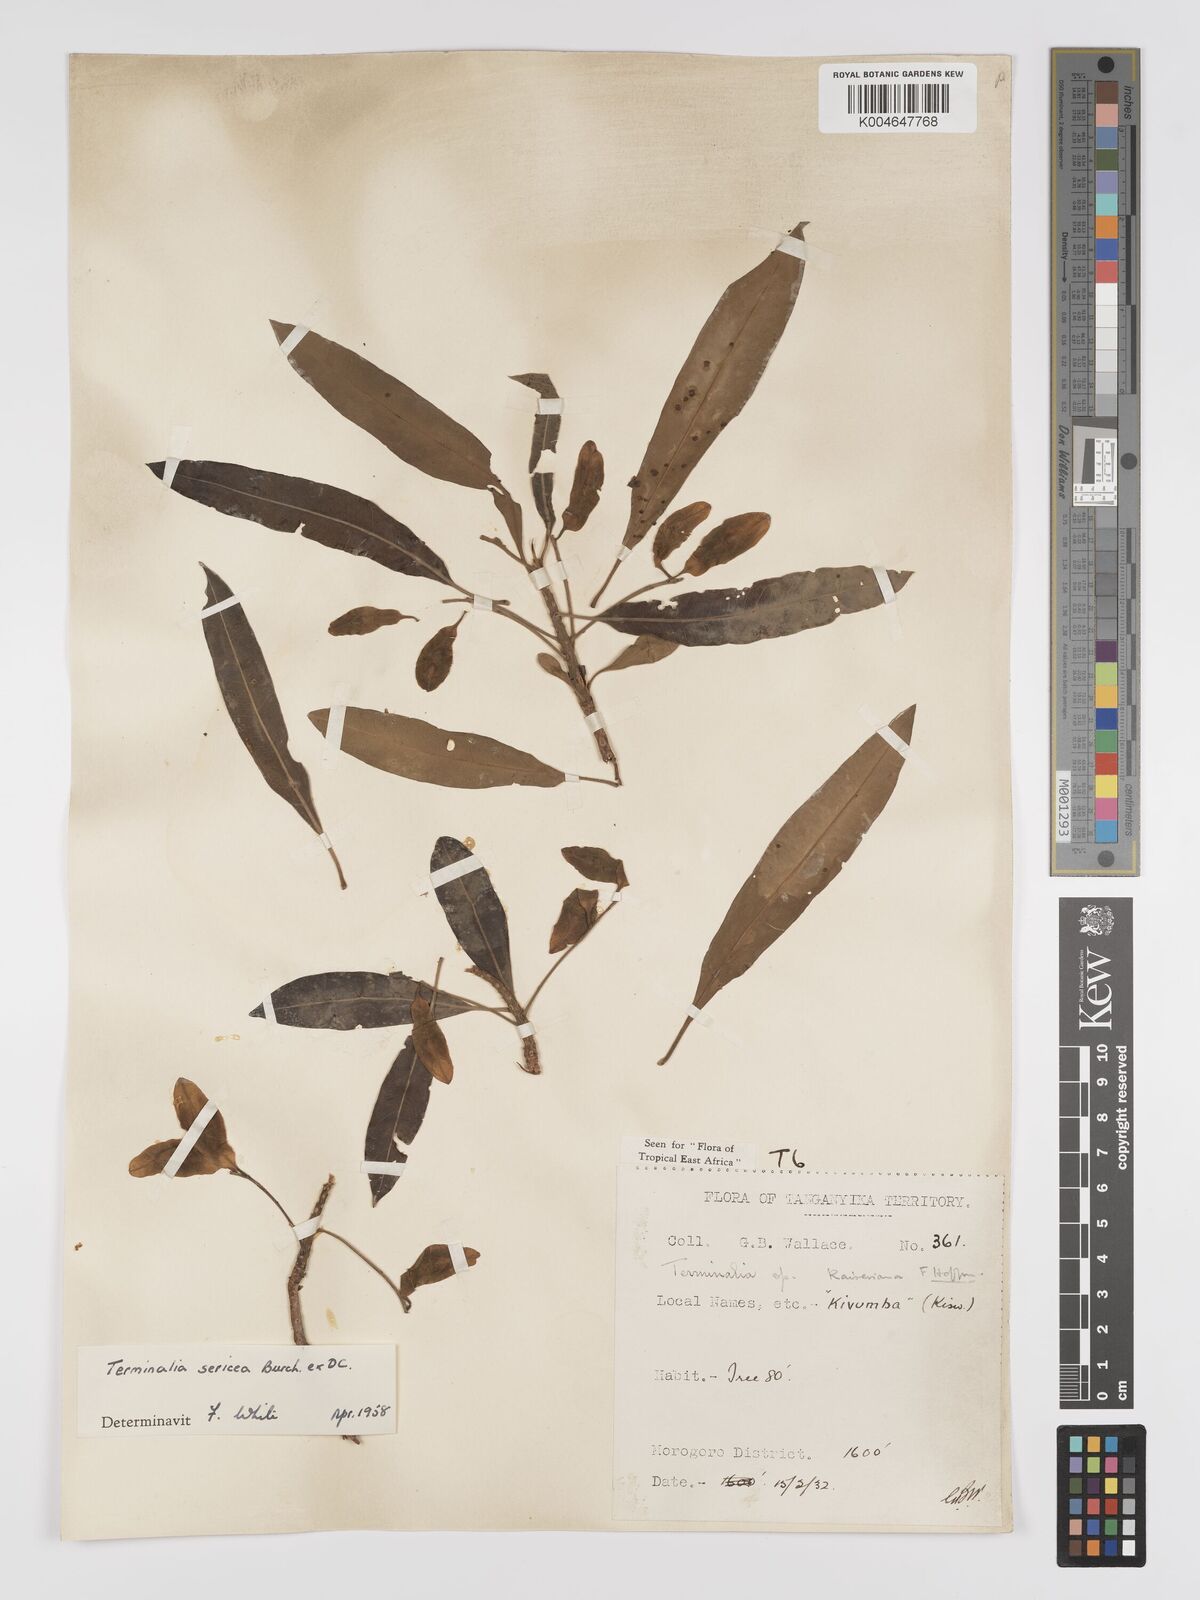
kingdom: Plantae
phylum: Tracheophyta
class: Magnoliopsida
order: Myrtales
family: Combretaceae
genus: Terminalia
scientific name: Terminalia
